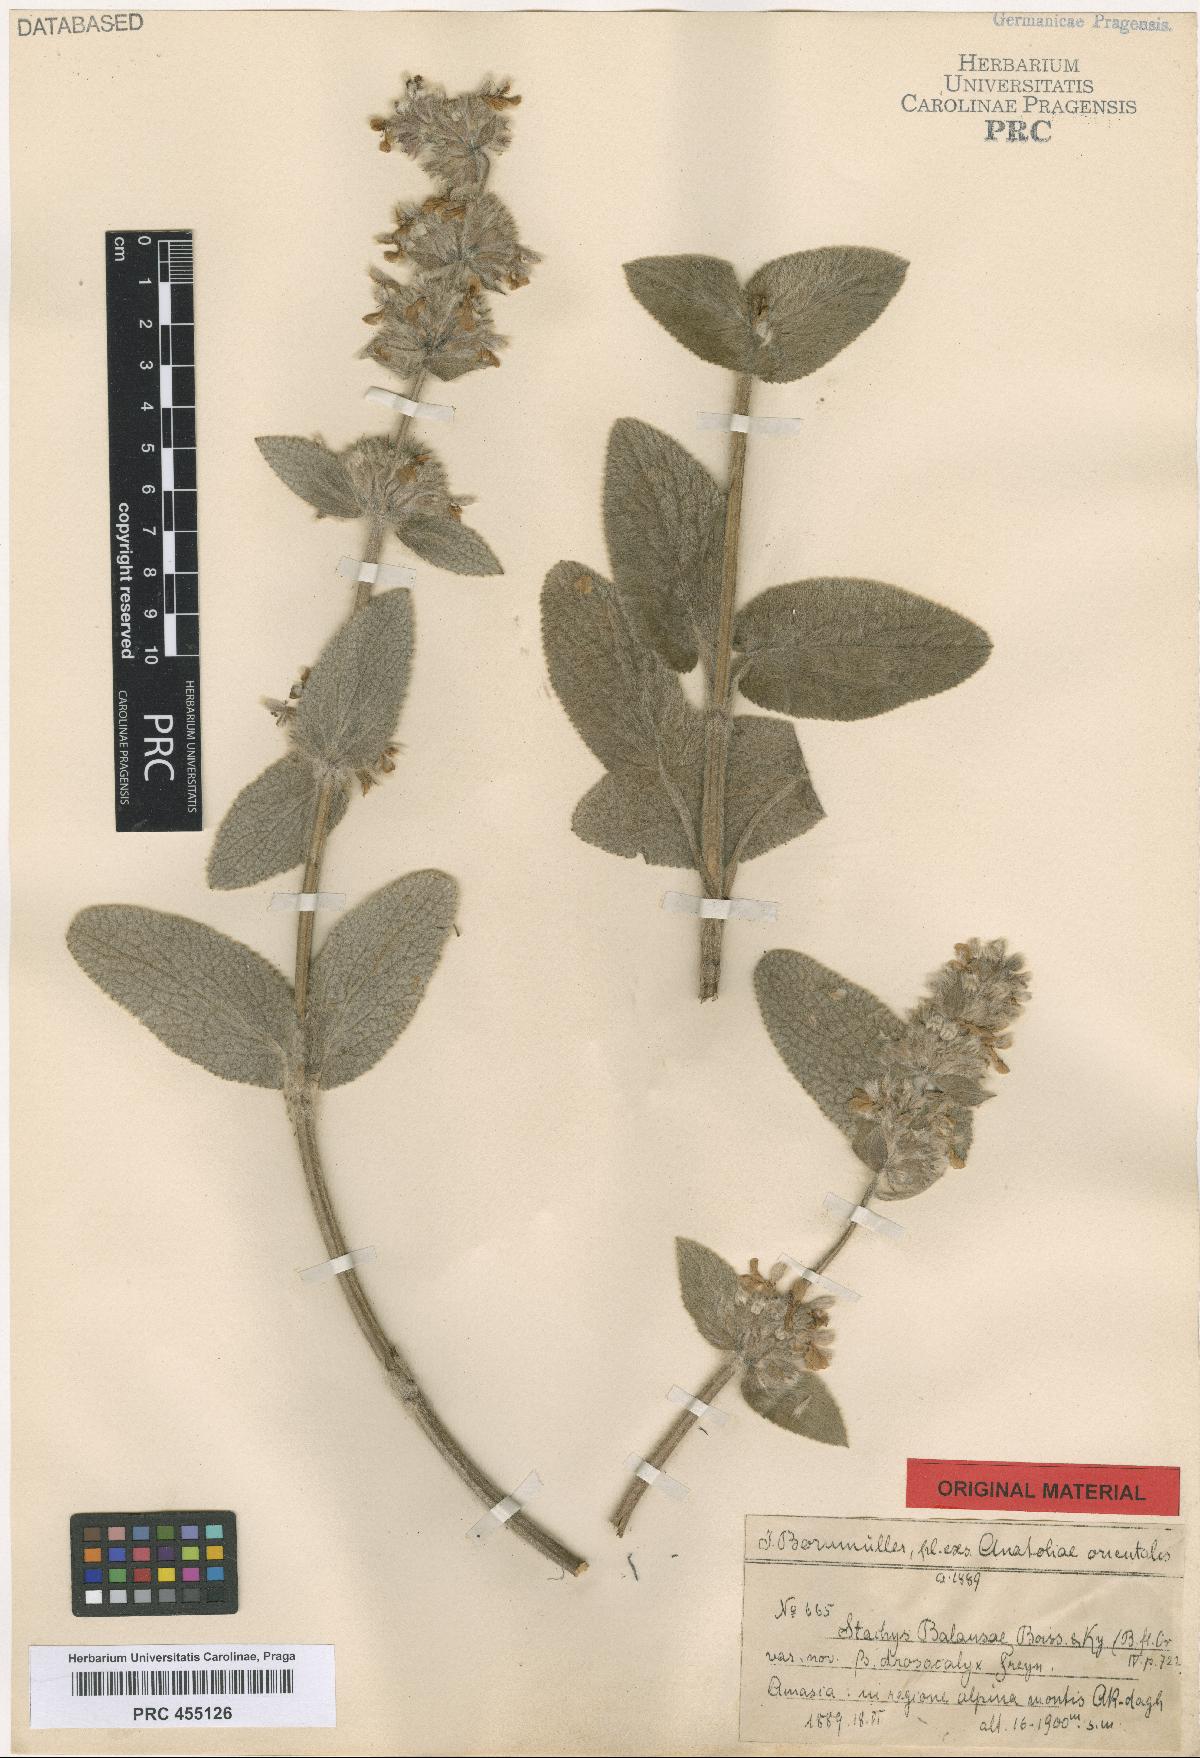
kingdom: Plantae
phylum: Tracheophyta
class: Magnoliopsida
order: Lamiales
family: Lamiaceae
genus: Stachys
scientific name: Stachys balansae
